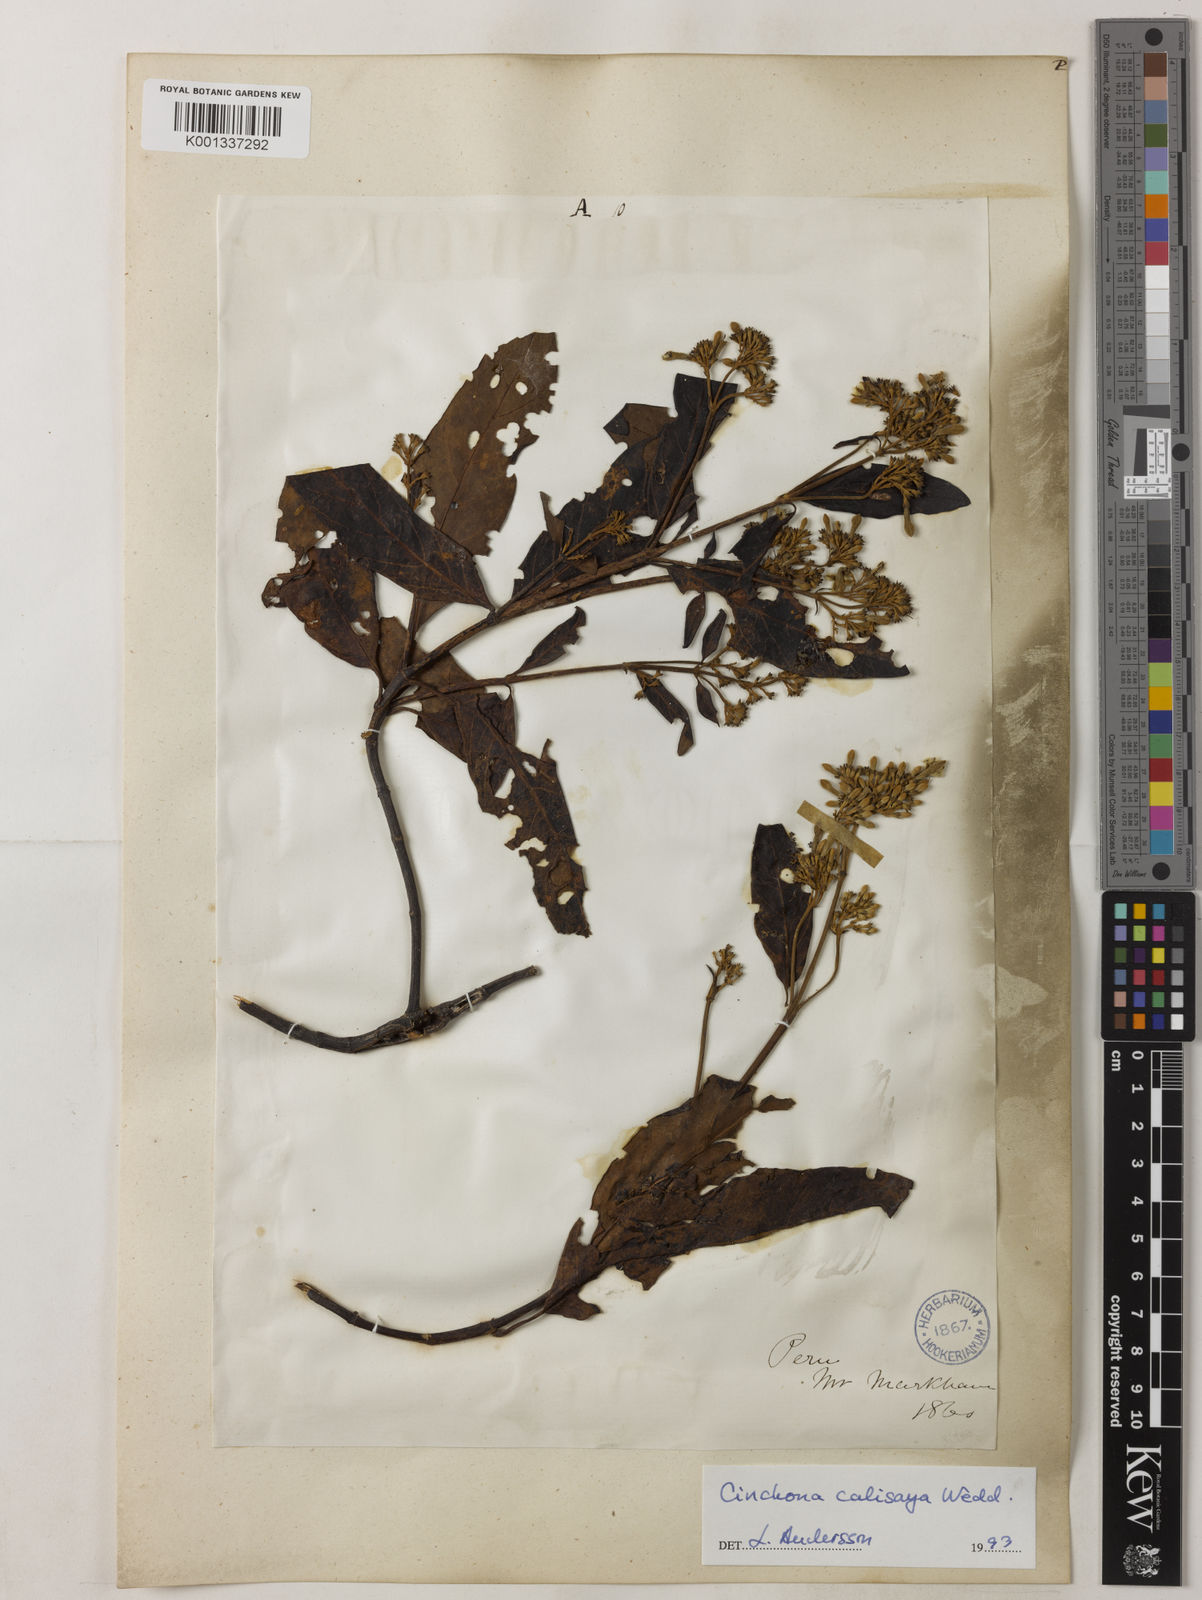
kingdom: Plantae
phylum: Tracheophyta
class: Magnoliopsida
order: Gentianales
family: Rubiaceae
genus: Cinchona
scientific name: Cinchona calisaya
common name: Ledgerbark
